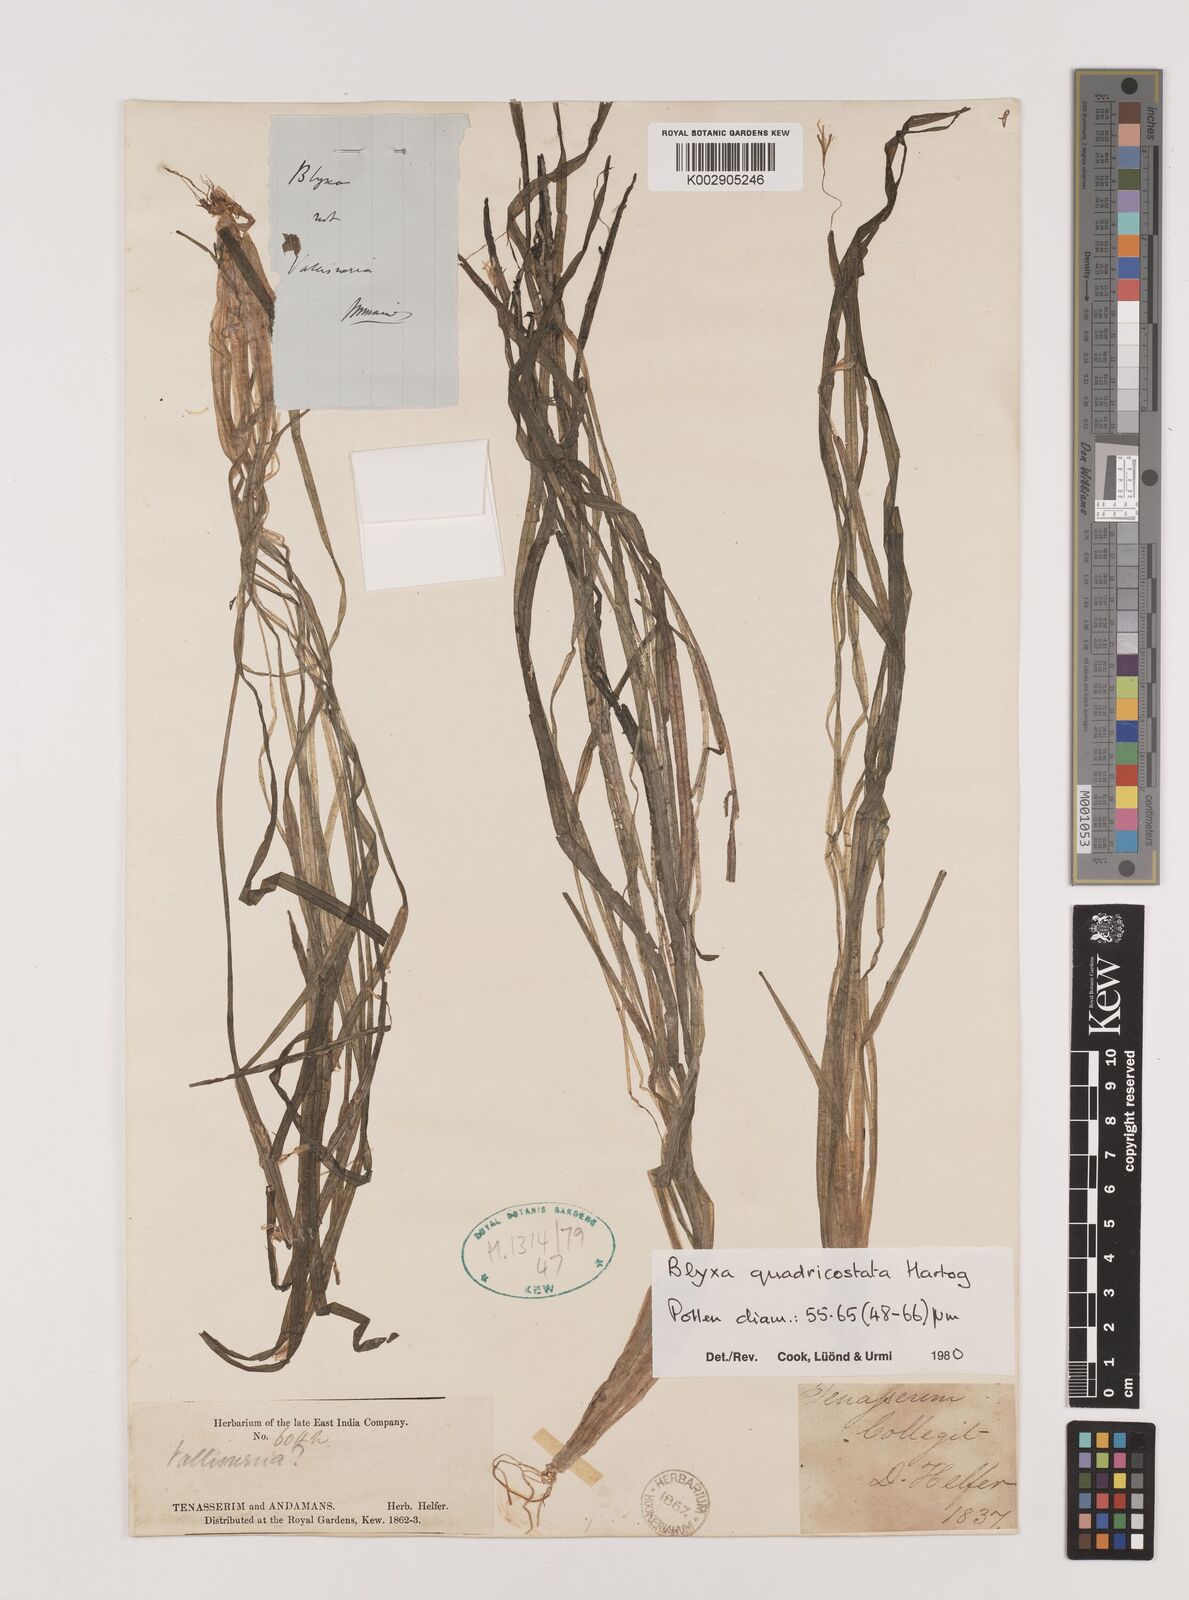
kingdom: Plantae
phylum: Tracheophyta
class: Liliopsida
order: Alismatales
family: Hydrocharitaceae
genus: Blyxa
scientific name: Blyxa quadricostata
